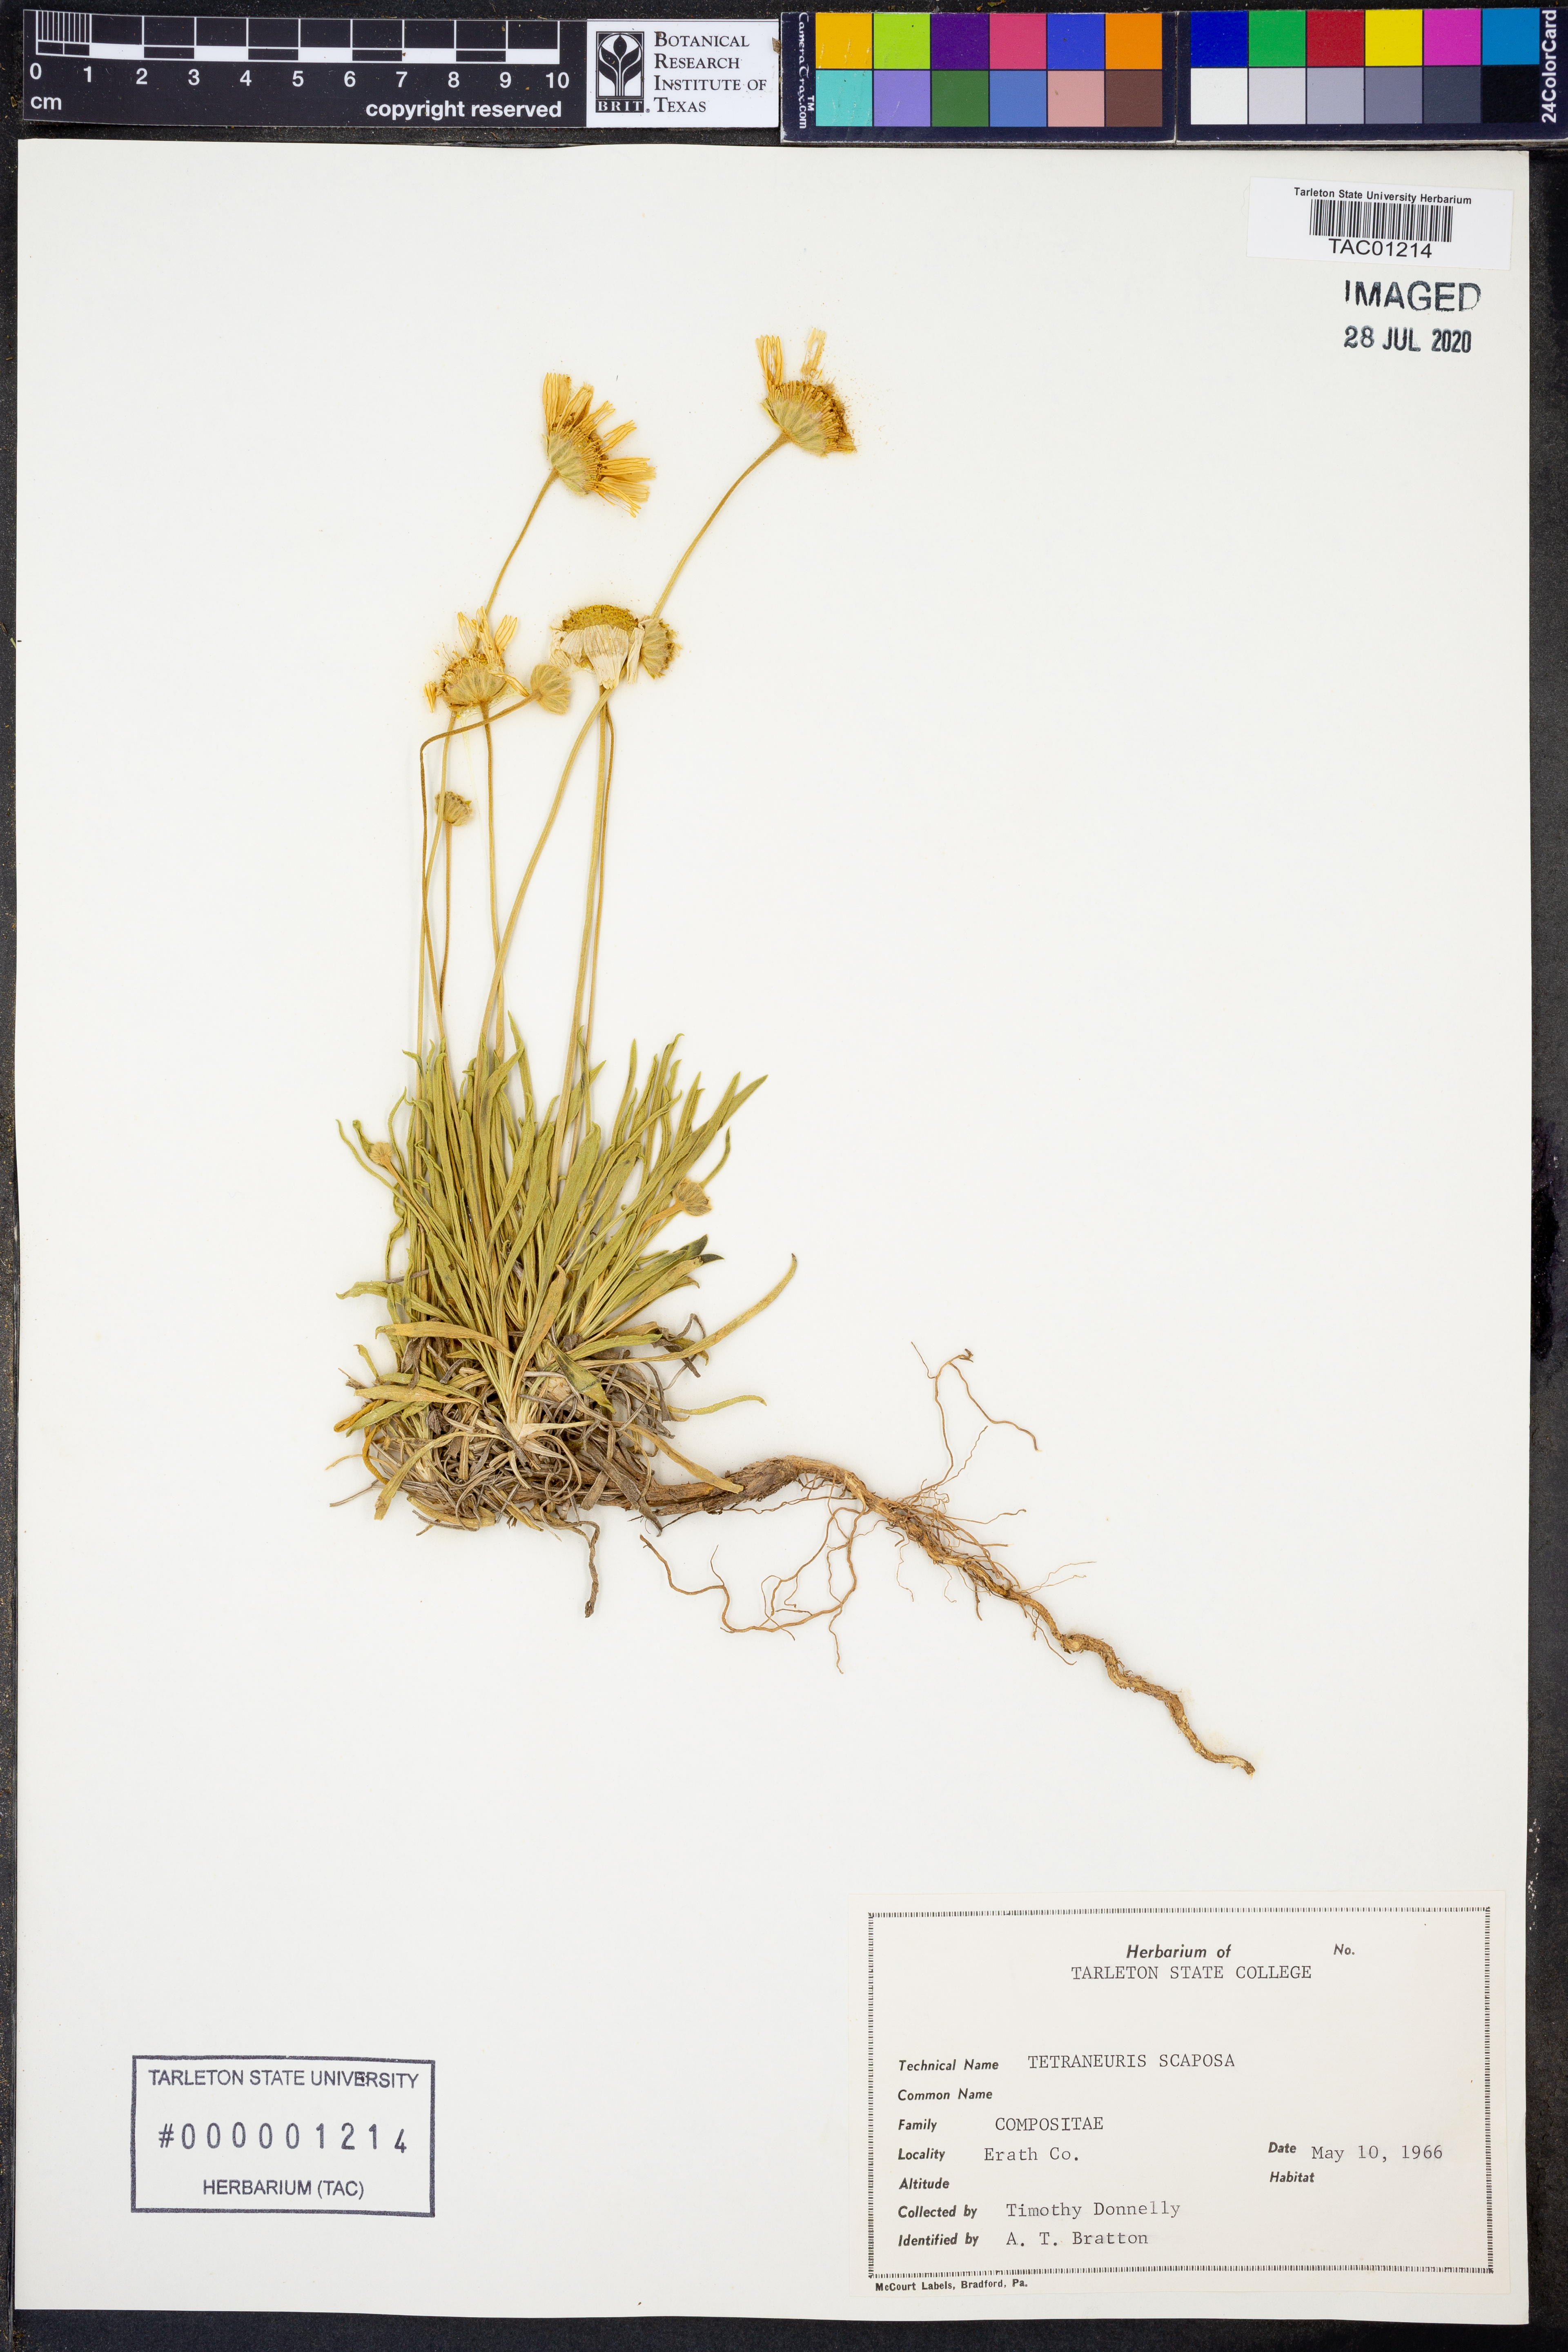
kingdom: Plantae
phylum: Tracheophyta
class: Magnoliopsida
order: Asterales
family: Asteraceae
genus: Tetraneuris
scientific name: Tetraneuris scaposa
